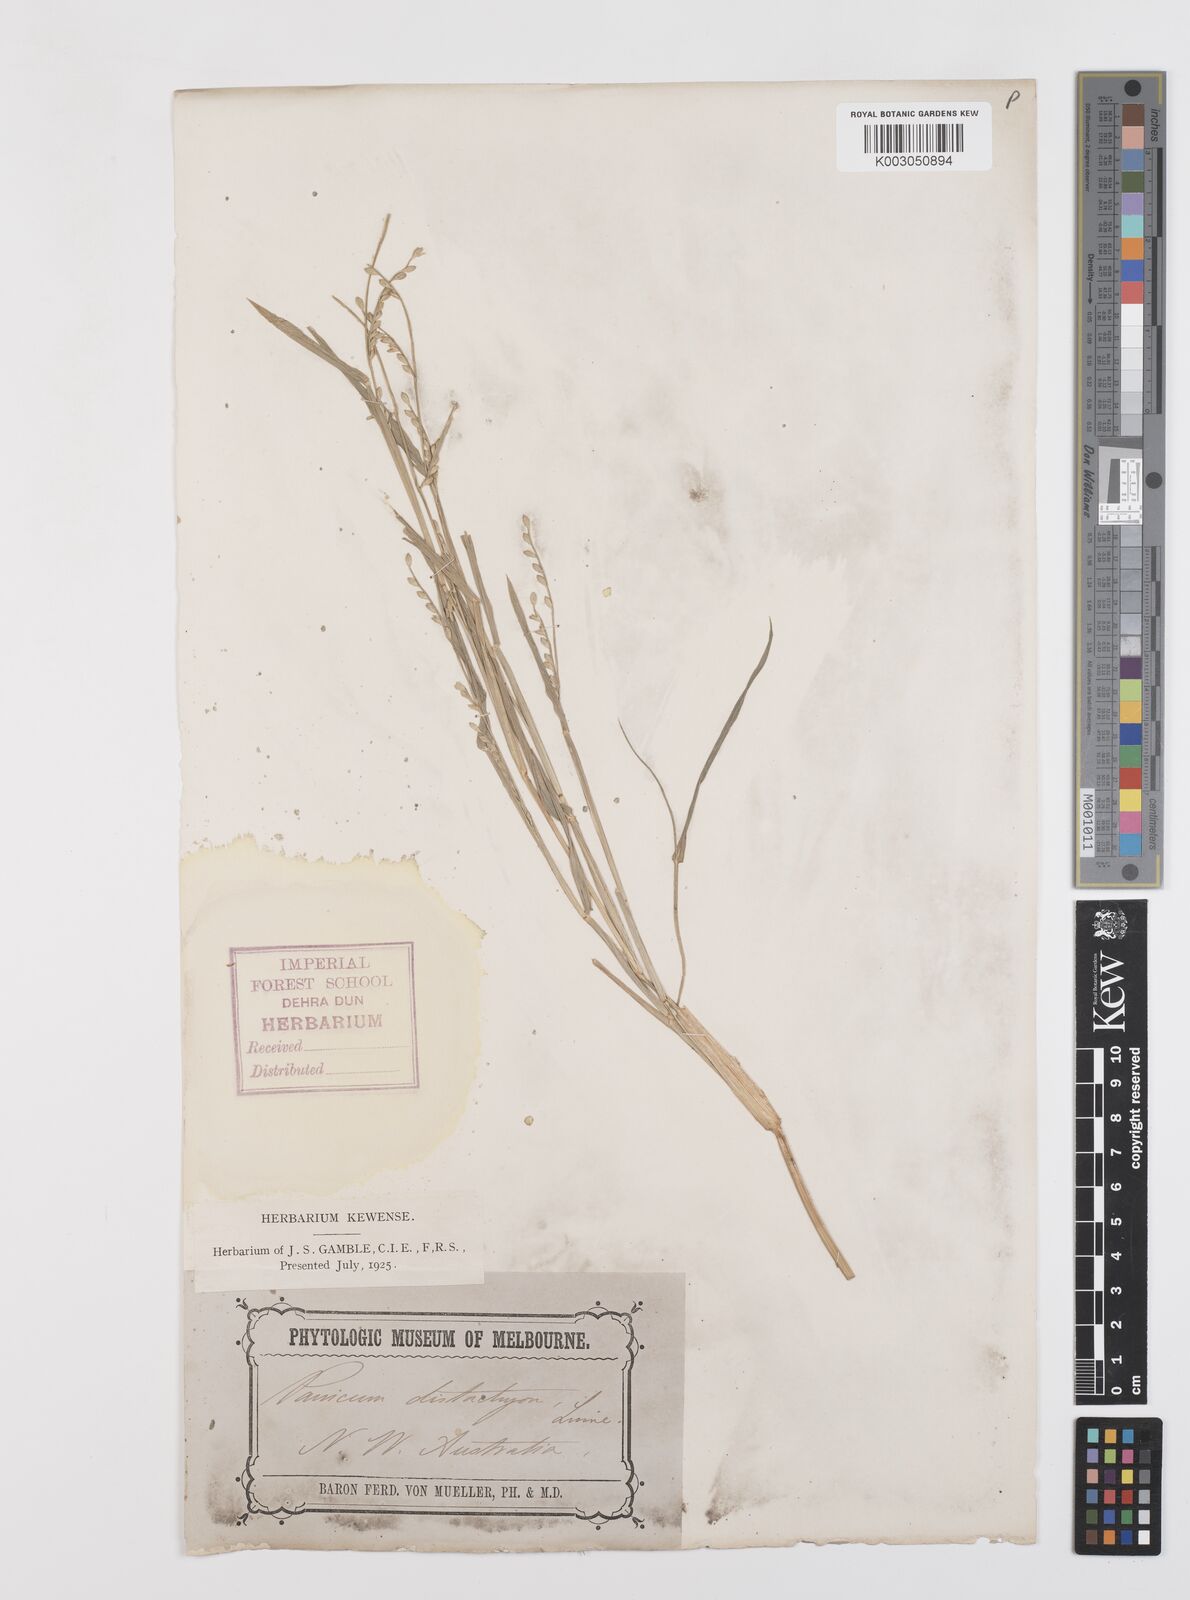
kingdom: Plantae
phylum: Tracheophyta
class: Liliopsida
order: Poales
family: Poaceae
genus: Urochloa
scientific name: Urochloa subquadripara
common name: Armgrass millet
